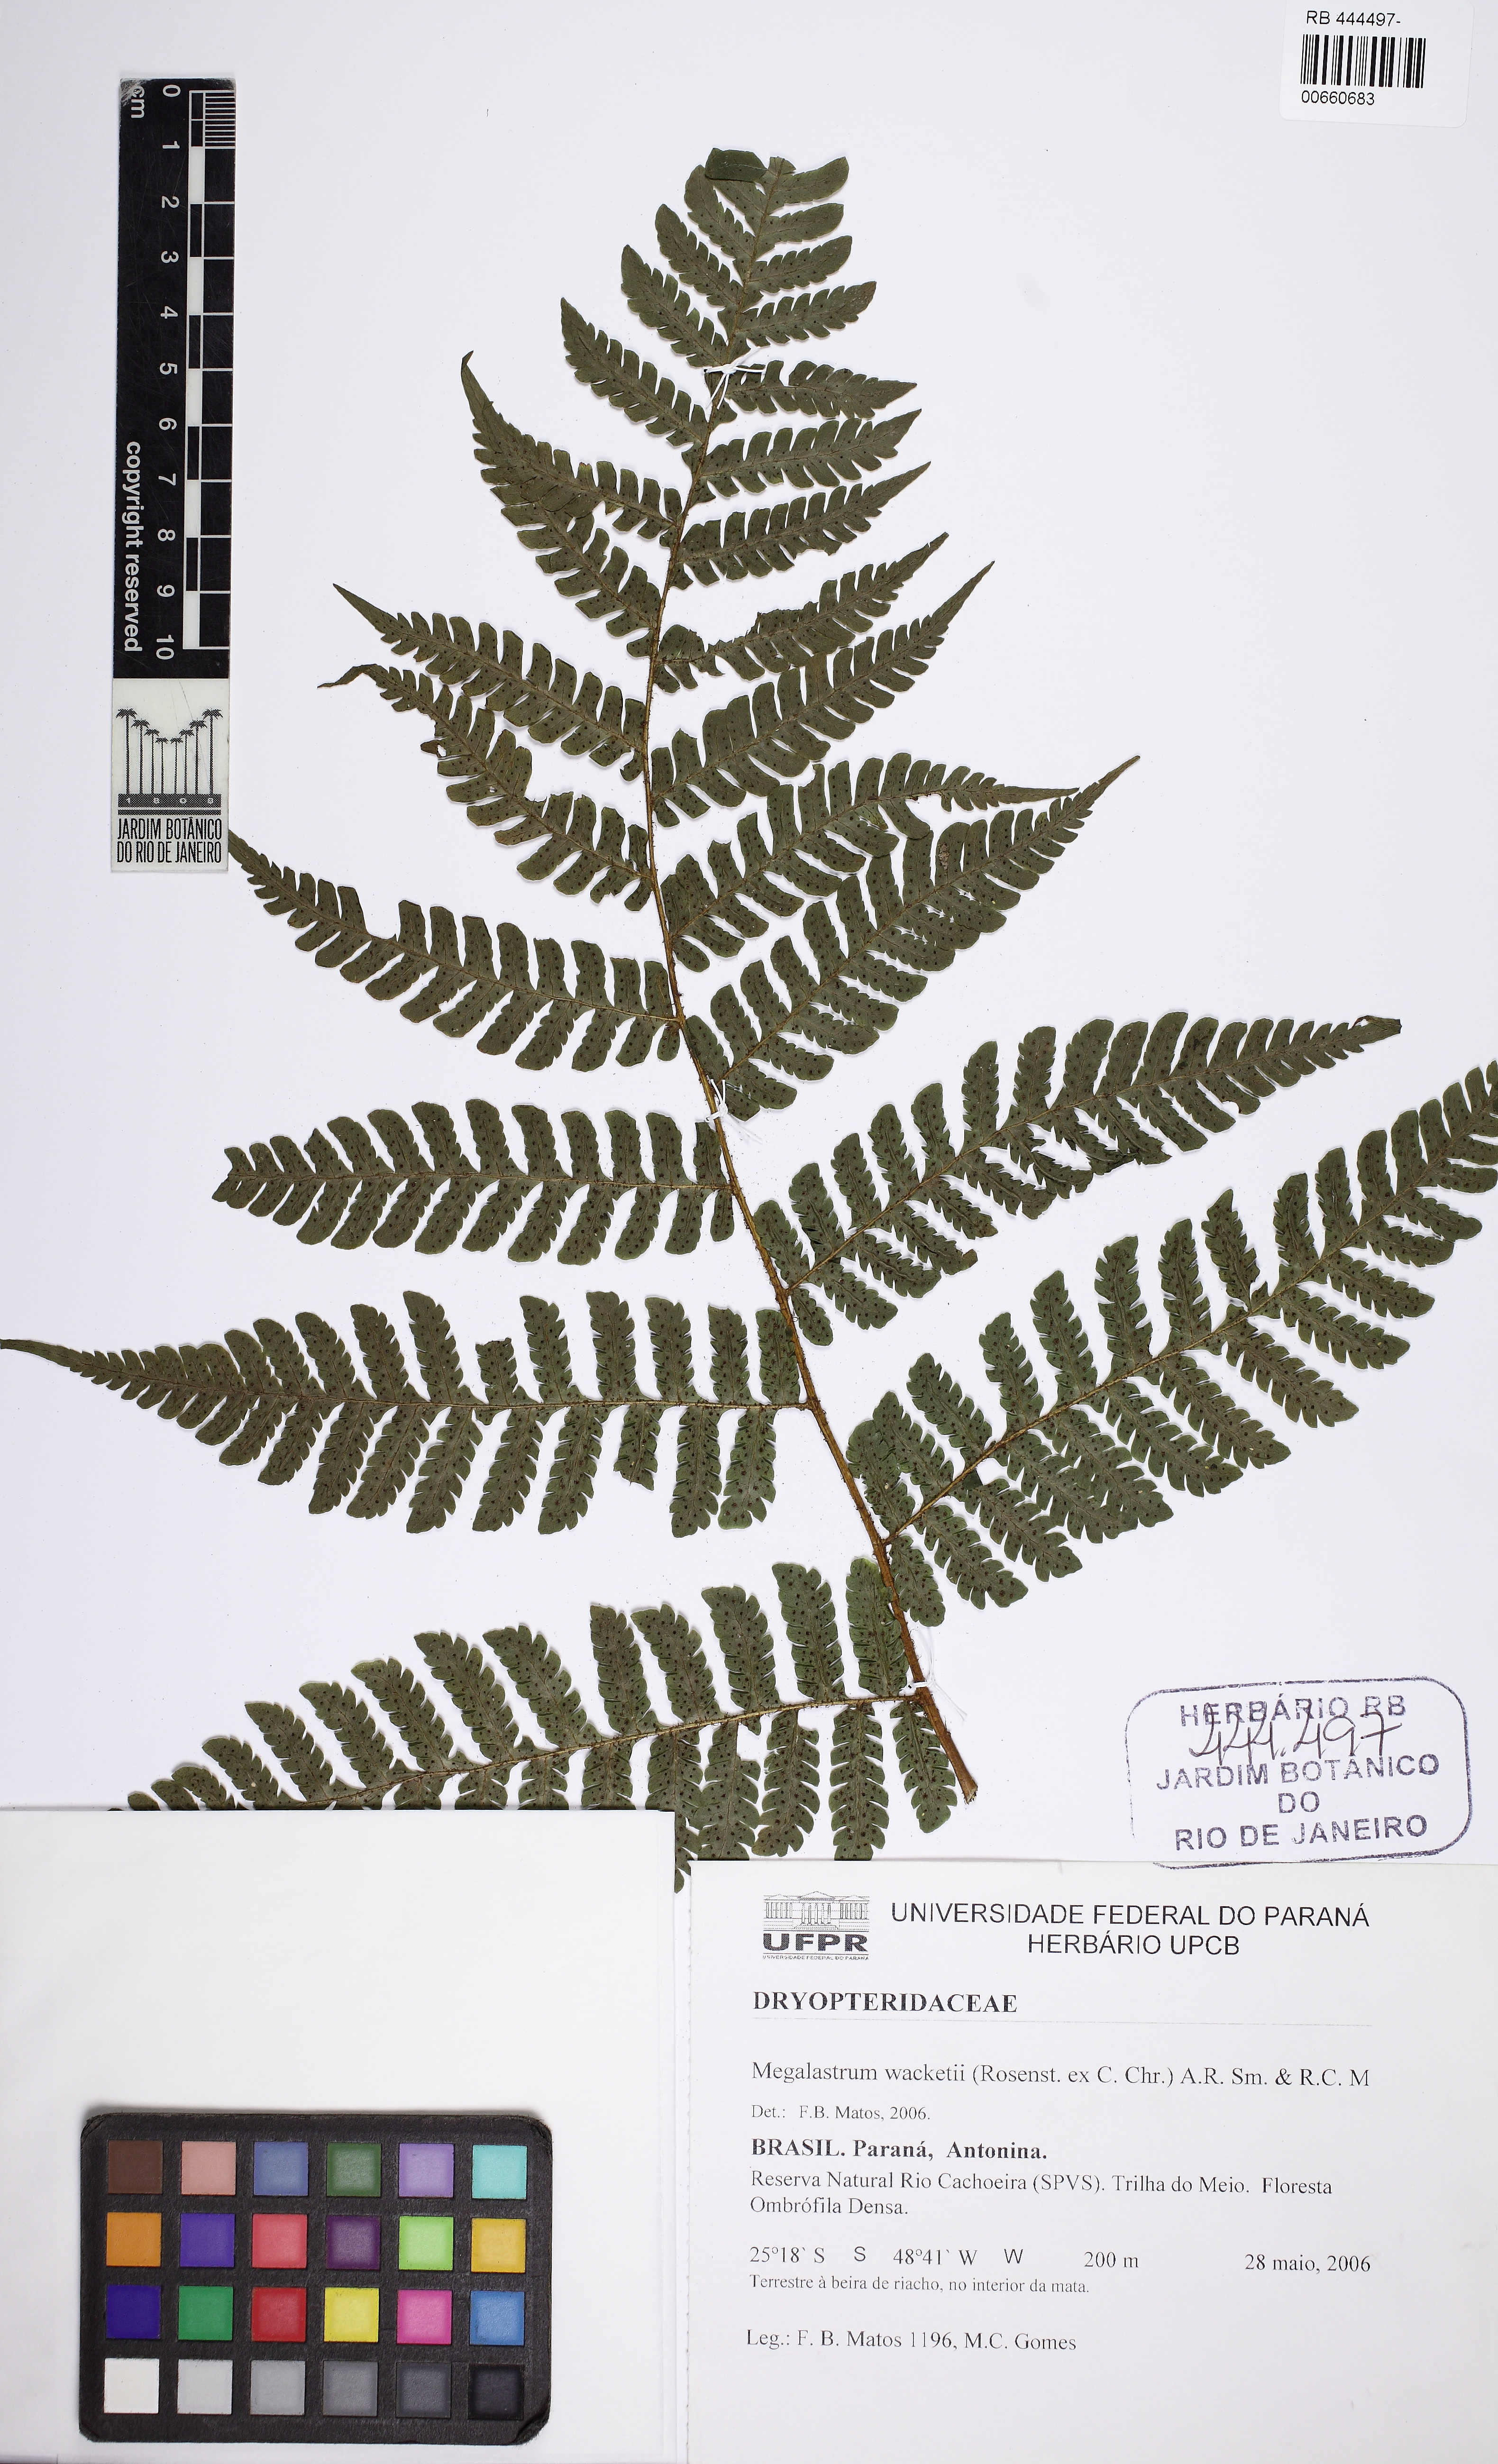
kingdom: Plantae
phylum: Tracheophyta
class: Polypodiopsida
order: Polypodiales
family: Dryopteridaceae
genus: Megalastrum
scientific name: Megalastrum umbrinum
